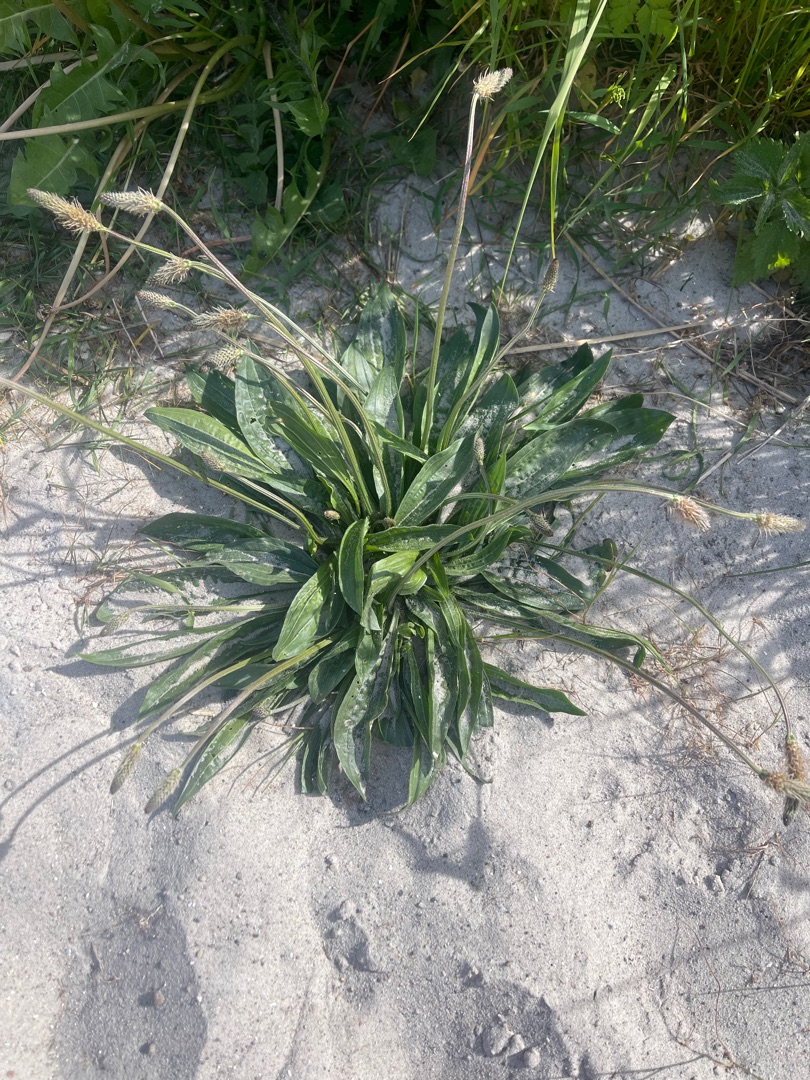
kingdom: Plantae
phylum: Tracheophyta
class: Magnoliopsida
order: Lamiales
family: Plantaginaceae
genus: Plantago
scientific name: Plantago lanceolata
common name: Lancet-vejbred
